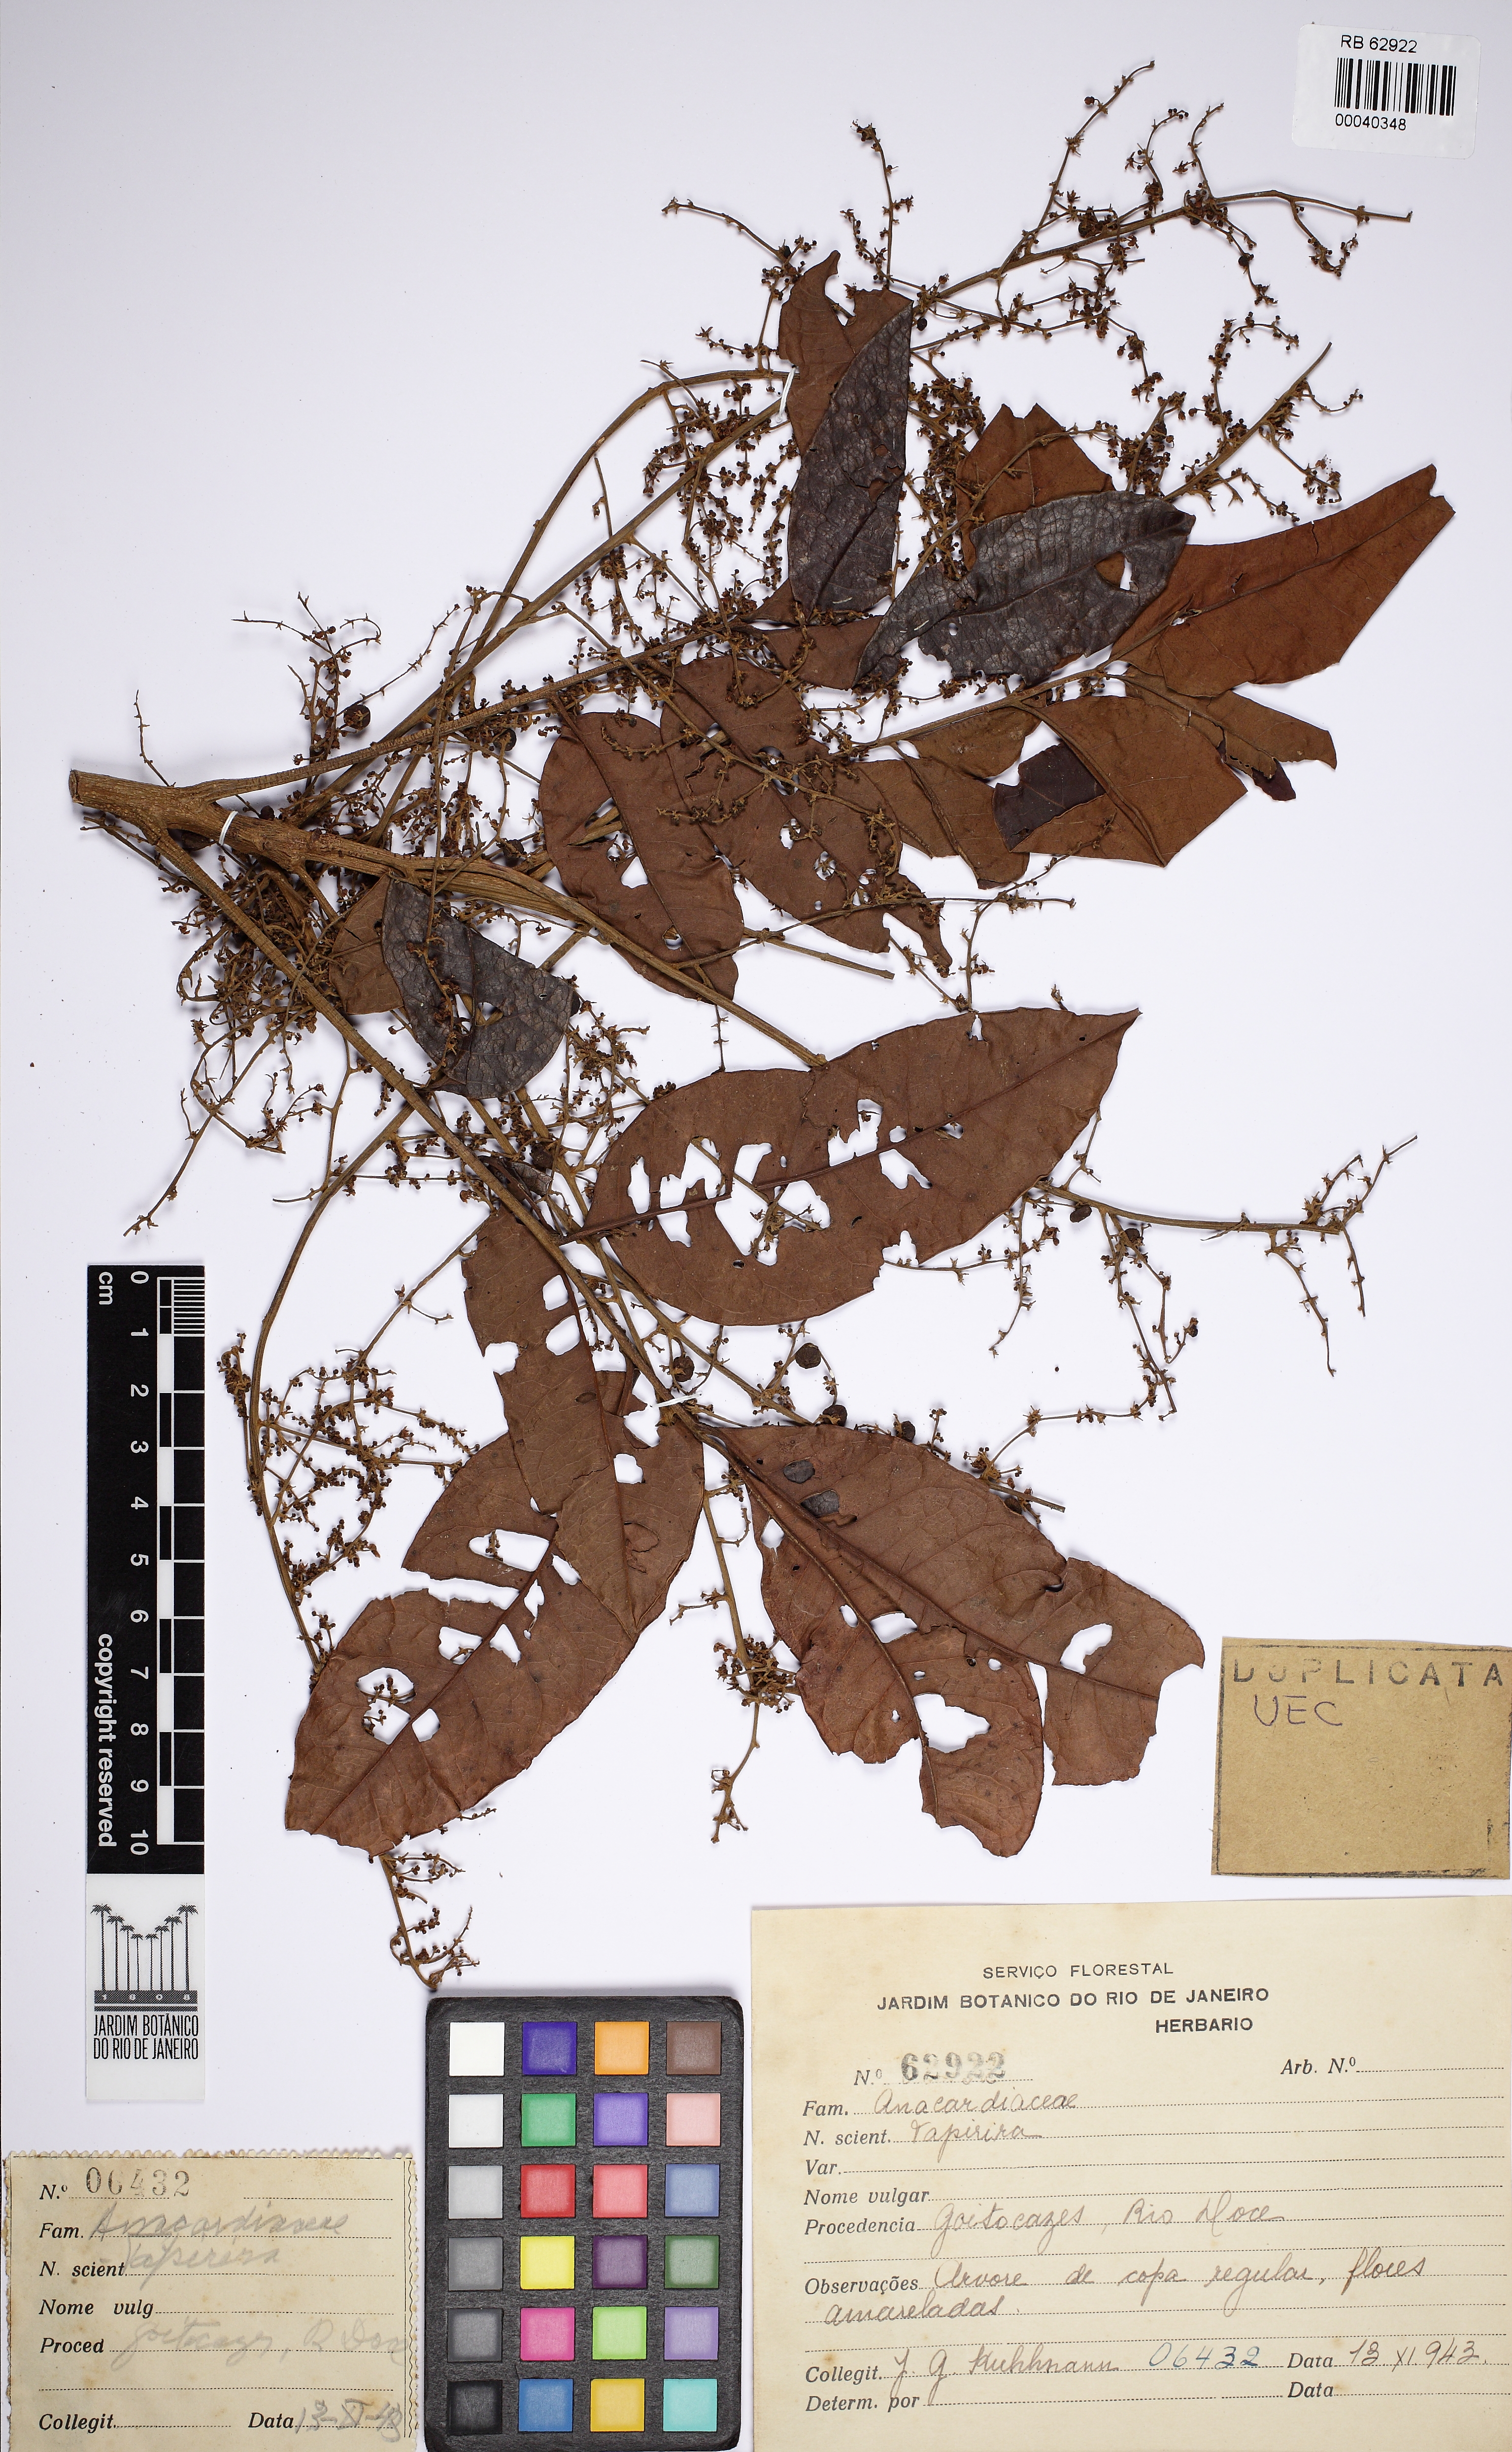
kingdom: Plantae
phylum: Tracheophyta
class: Magnoliopsida
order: Sapindales
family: Anacardiaceae
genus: Tapirira
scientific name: Tapirira
